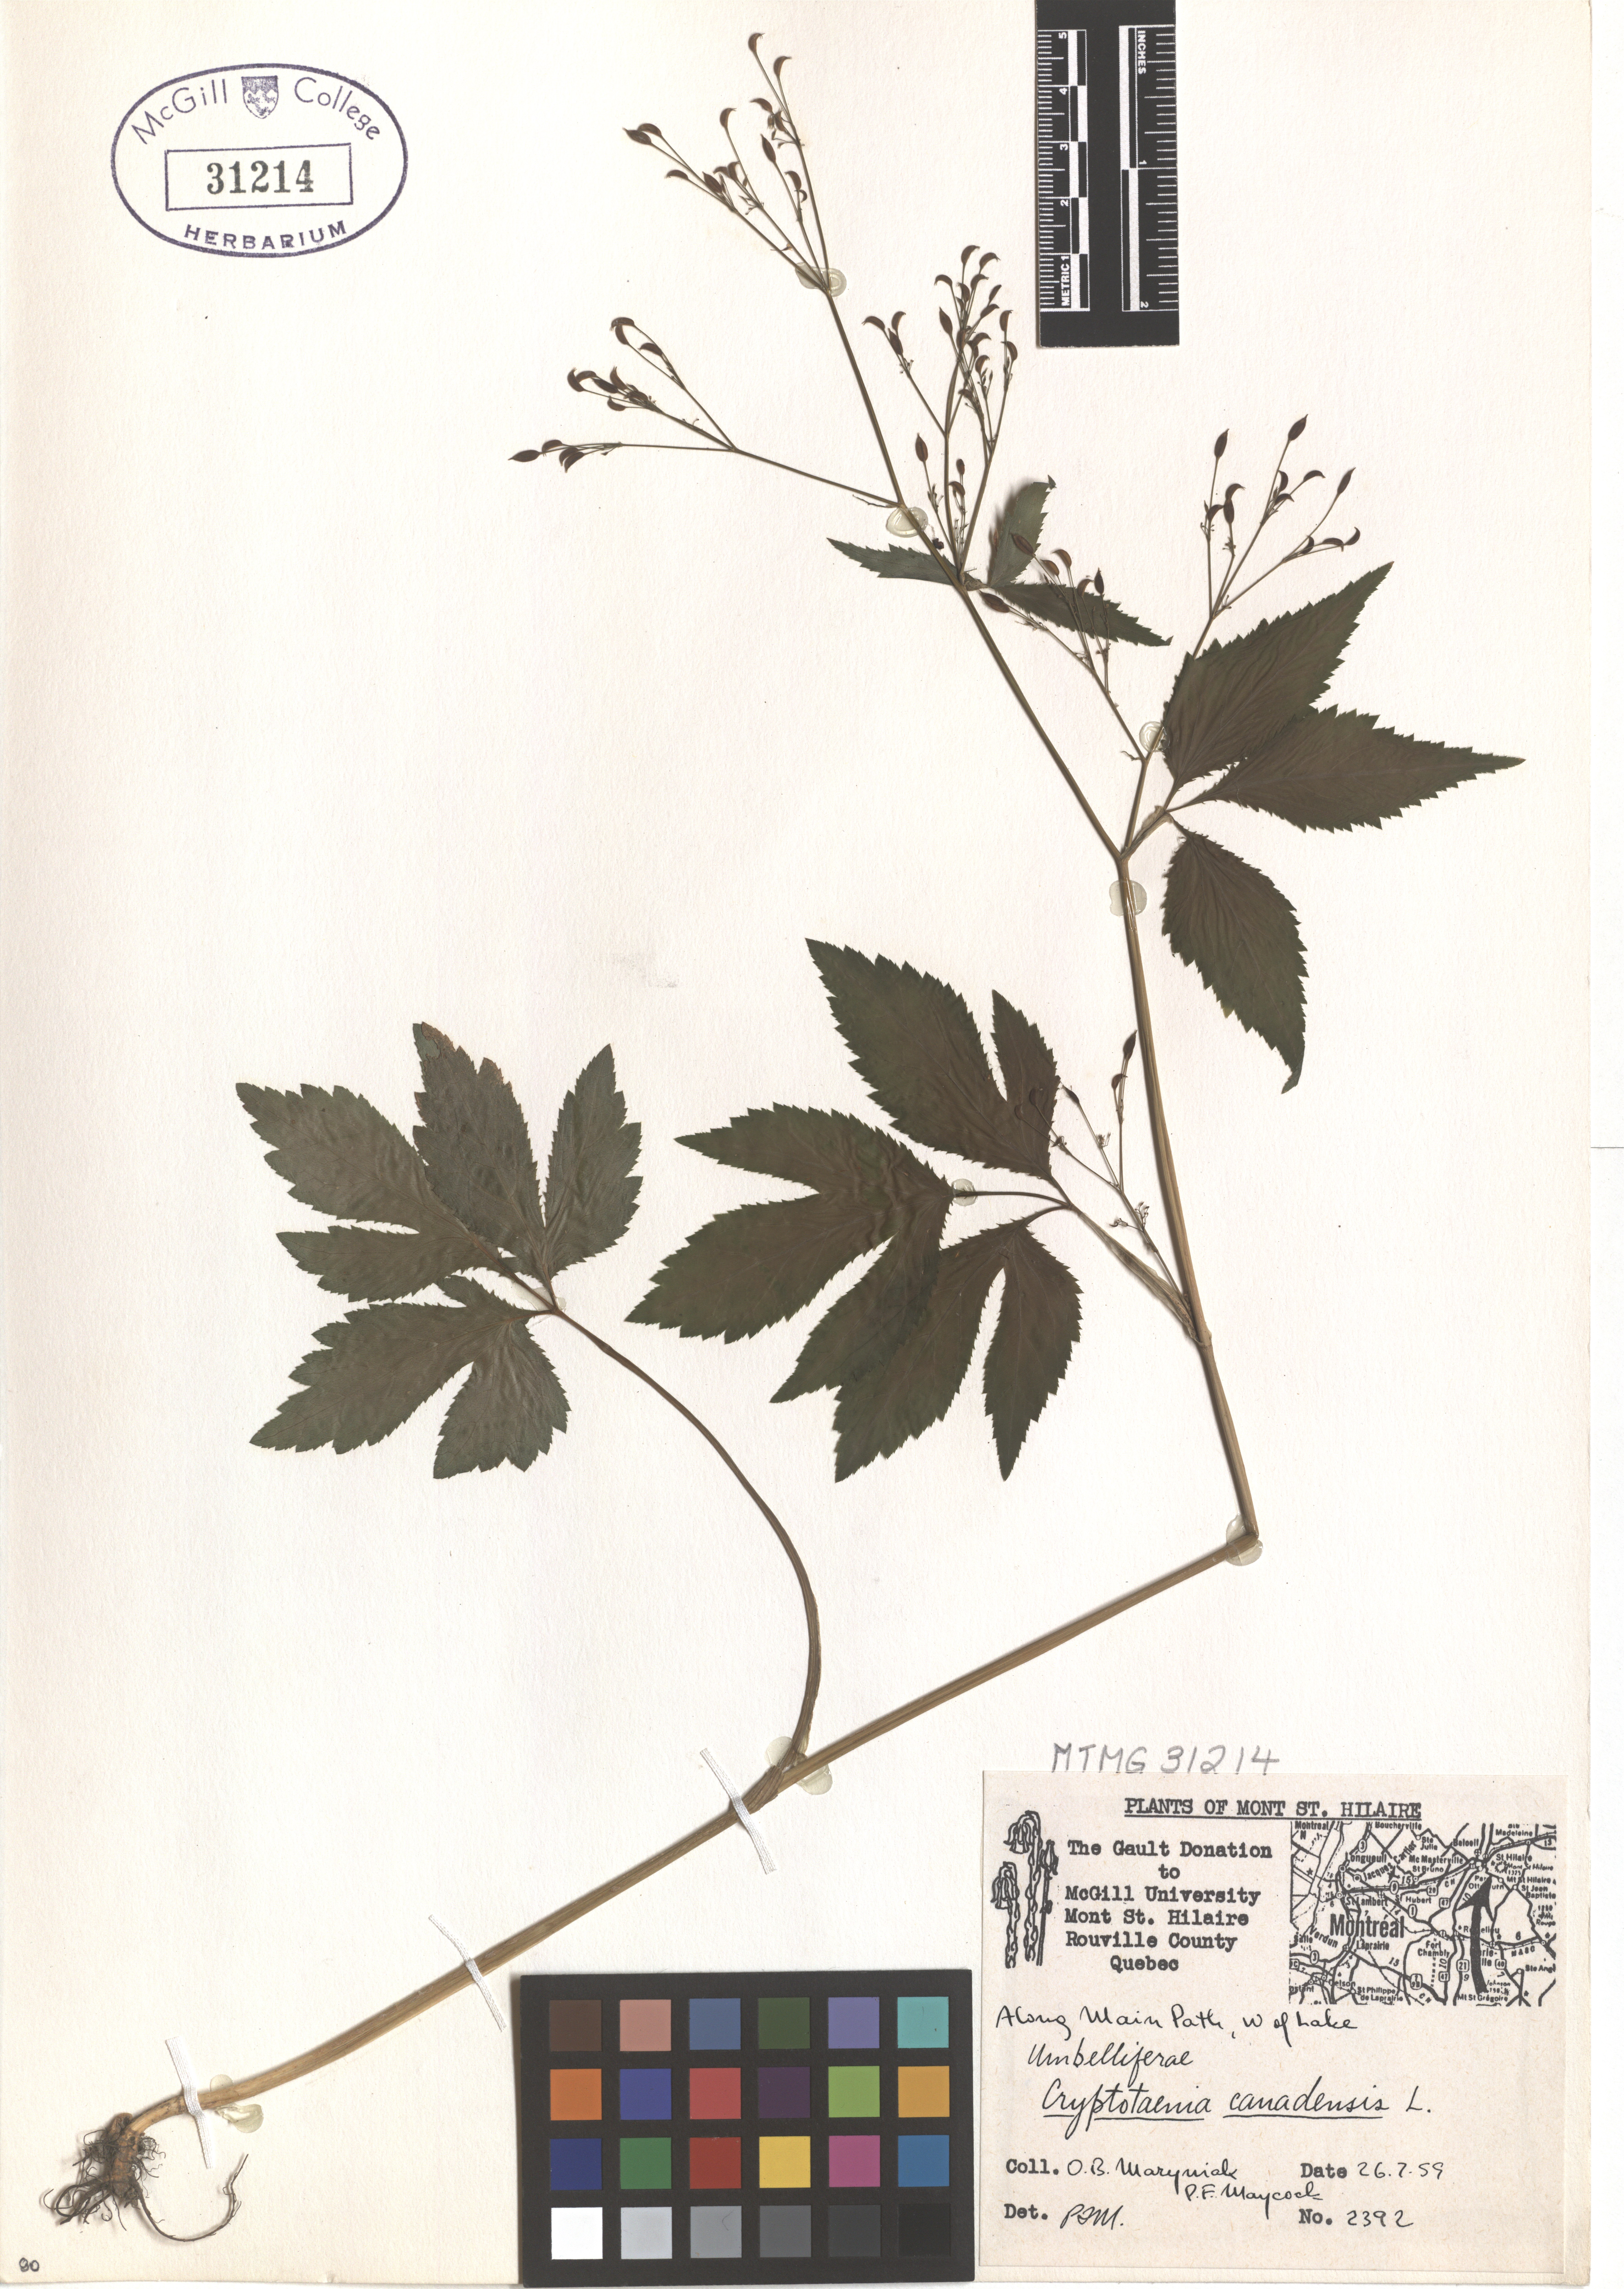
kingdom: Plantae
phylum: Tracheophyta
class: Magnoliopsida
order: Apiales
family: Apiaceae
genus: Cryptotaenia
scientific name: Cryptotaenia canadensis
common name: Honewort
